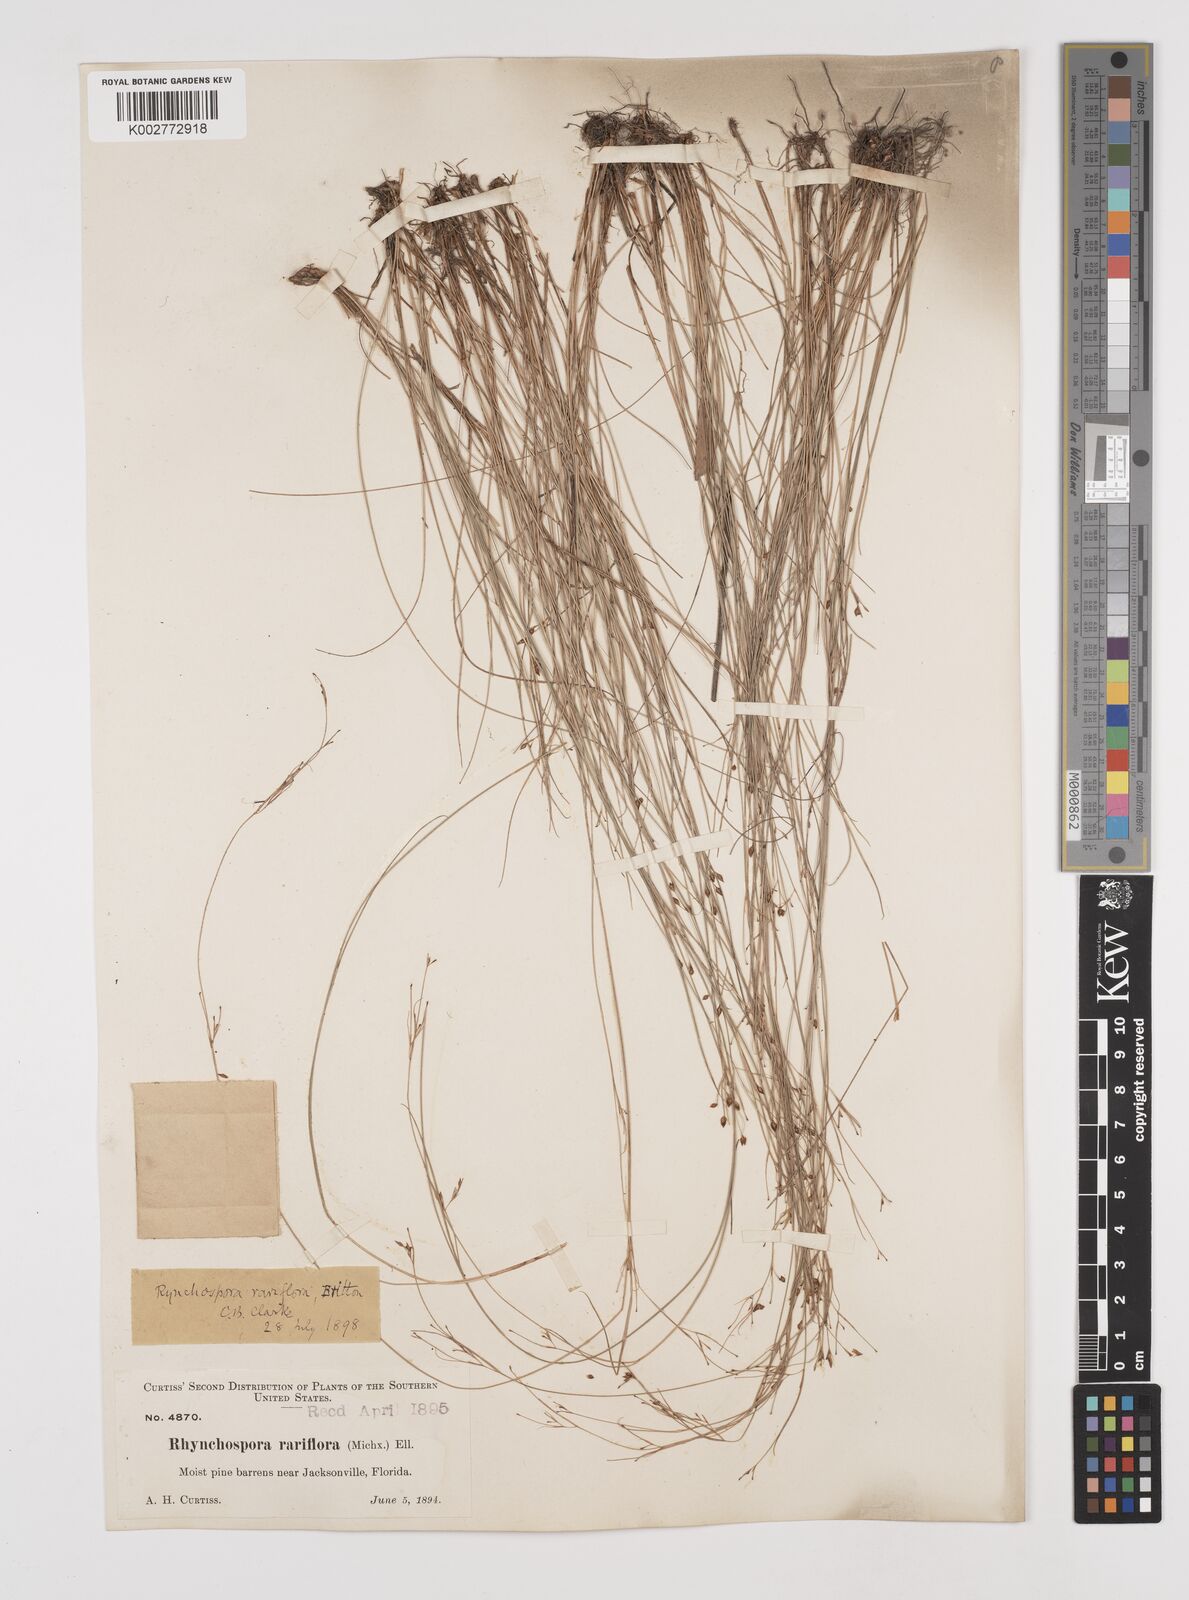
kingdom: Plantae
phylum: Tracheophyta
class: Liliopsida
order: Poales
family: Cyperaceae
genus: Rhynchospora
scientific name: Rhynchospora rariflora
